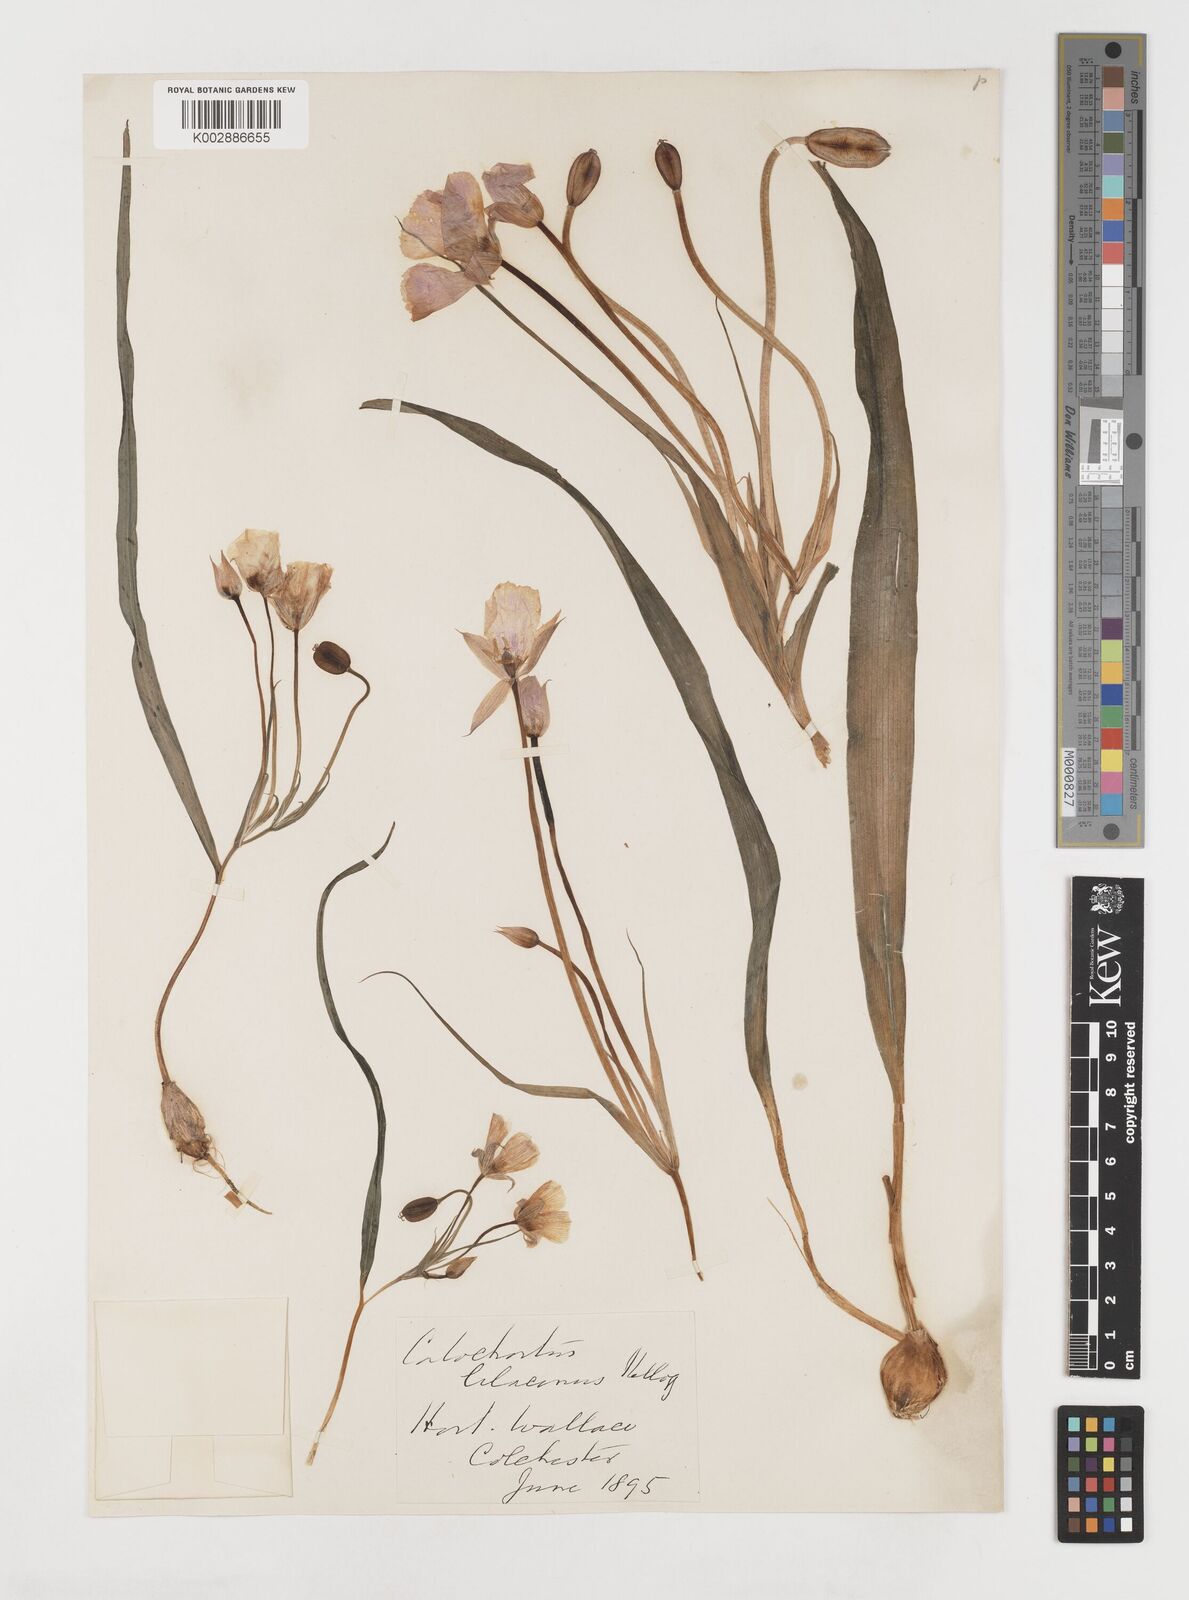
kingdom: Plantae
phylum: Tracheophyta
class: Liliopsida
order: Liliales
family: Liliaceae
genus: Calochortus
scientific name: Calochortus
